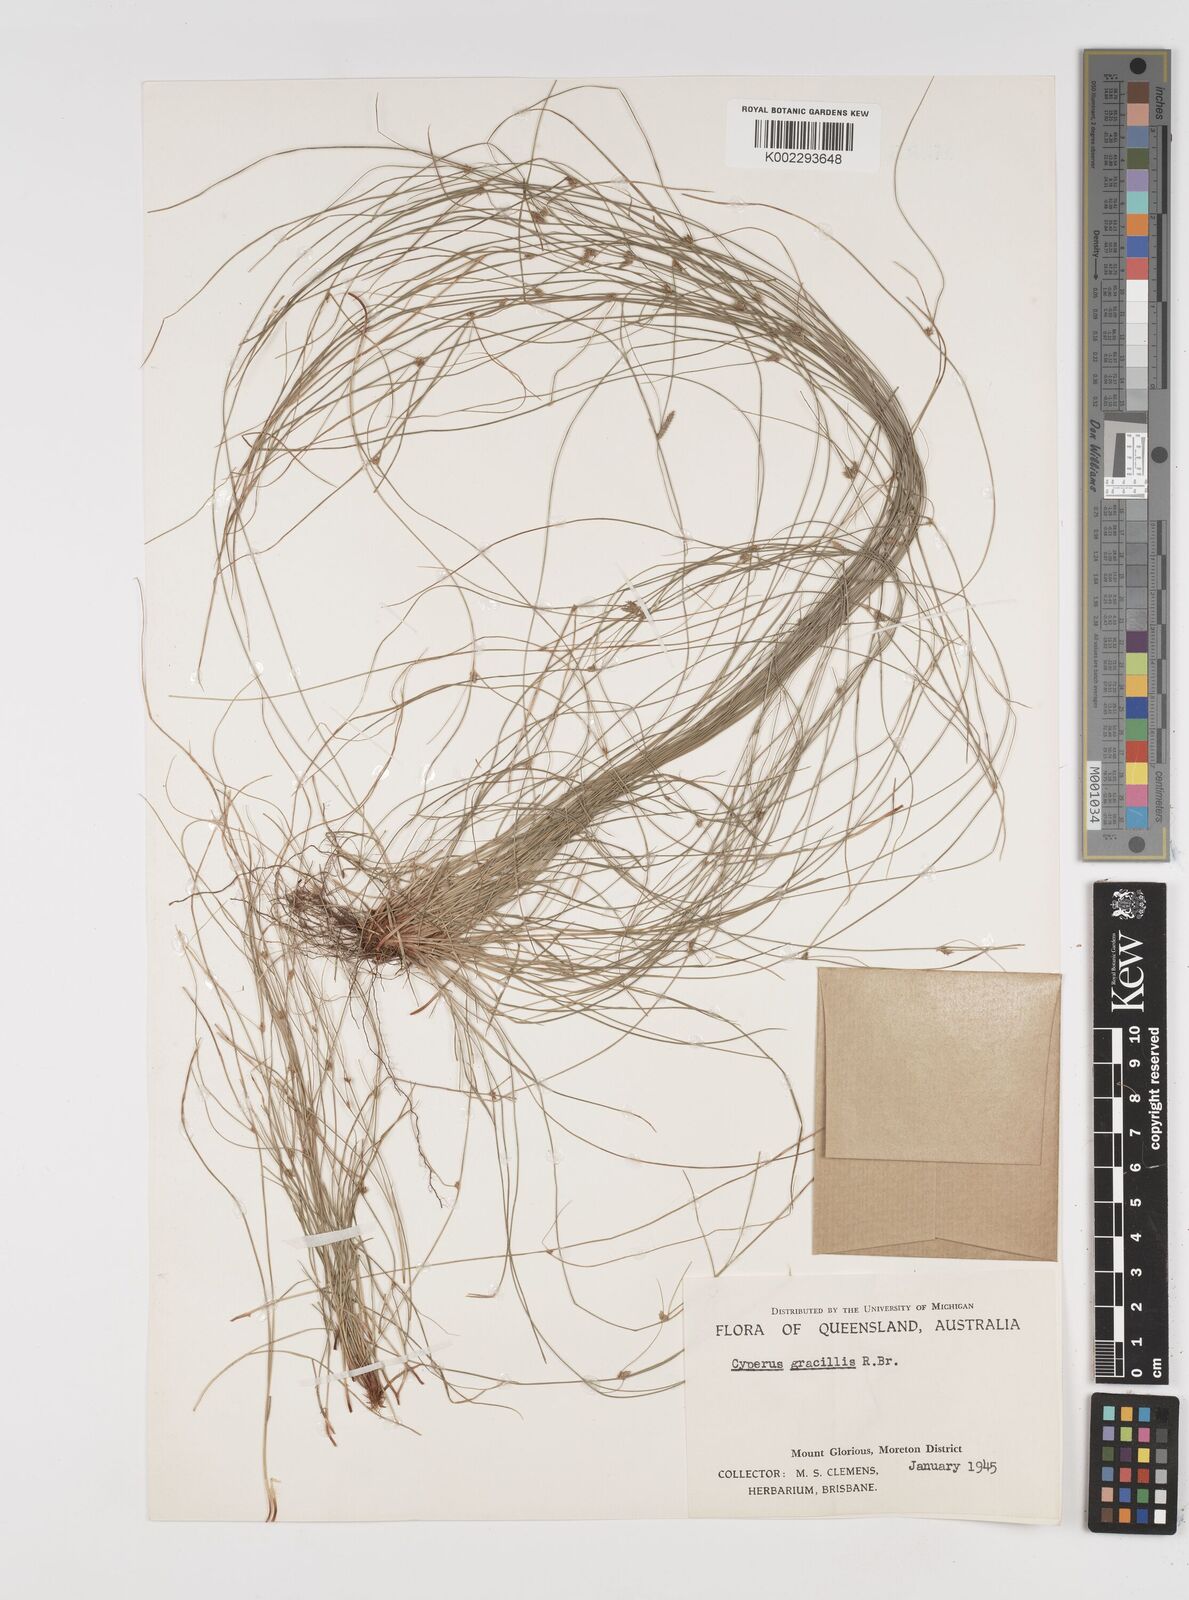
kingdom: Plantae
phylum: Tracheophyta
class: Liliopsida
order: Poales
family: Cyperaceae
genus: Cyperus
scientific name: Cyperus gracilis
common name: Slimjim flatsedge
